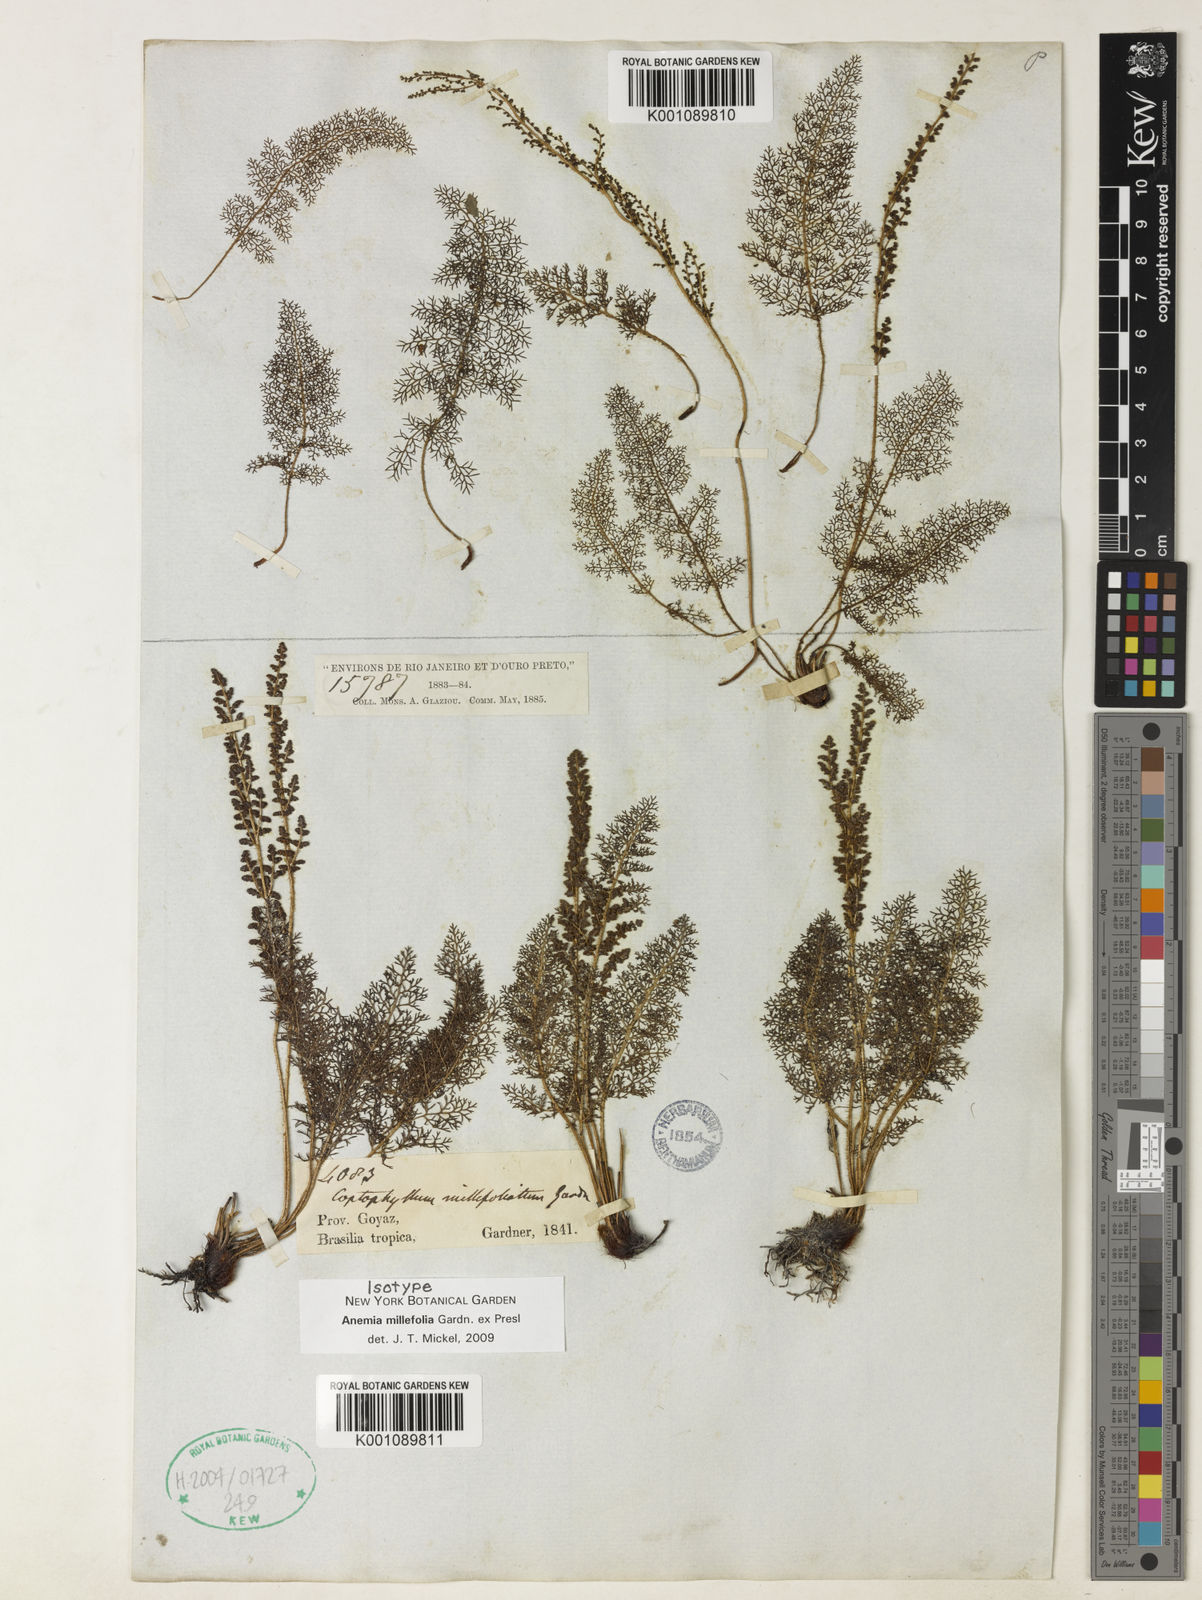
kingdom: Plantae
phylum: Tracheophyta
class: Polypodiopsida
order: Schizaeales
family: Anemiaceae
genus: Anemia
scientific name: Anemia millefolia
